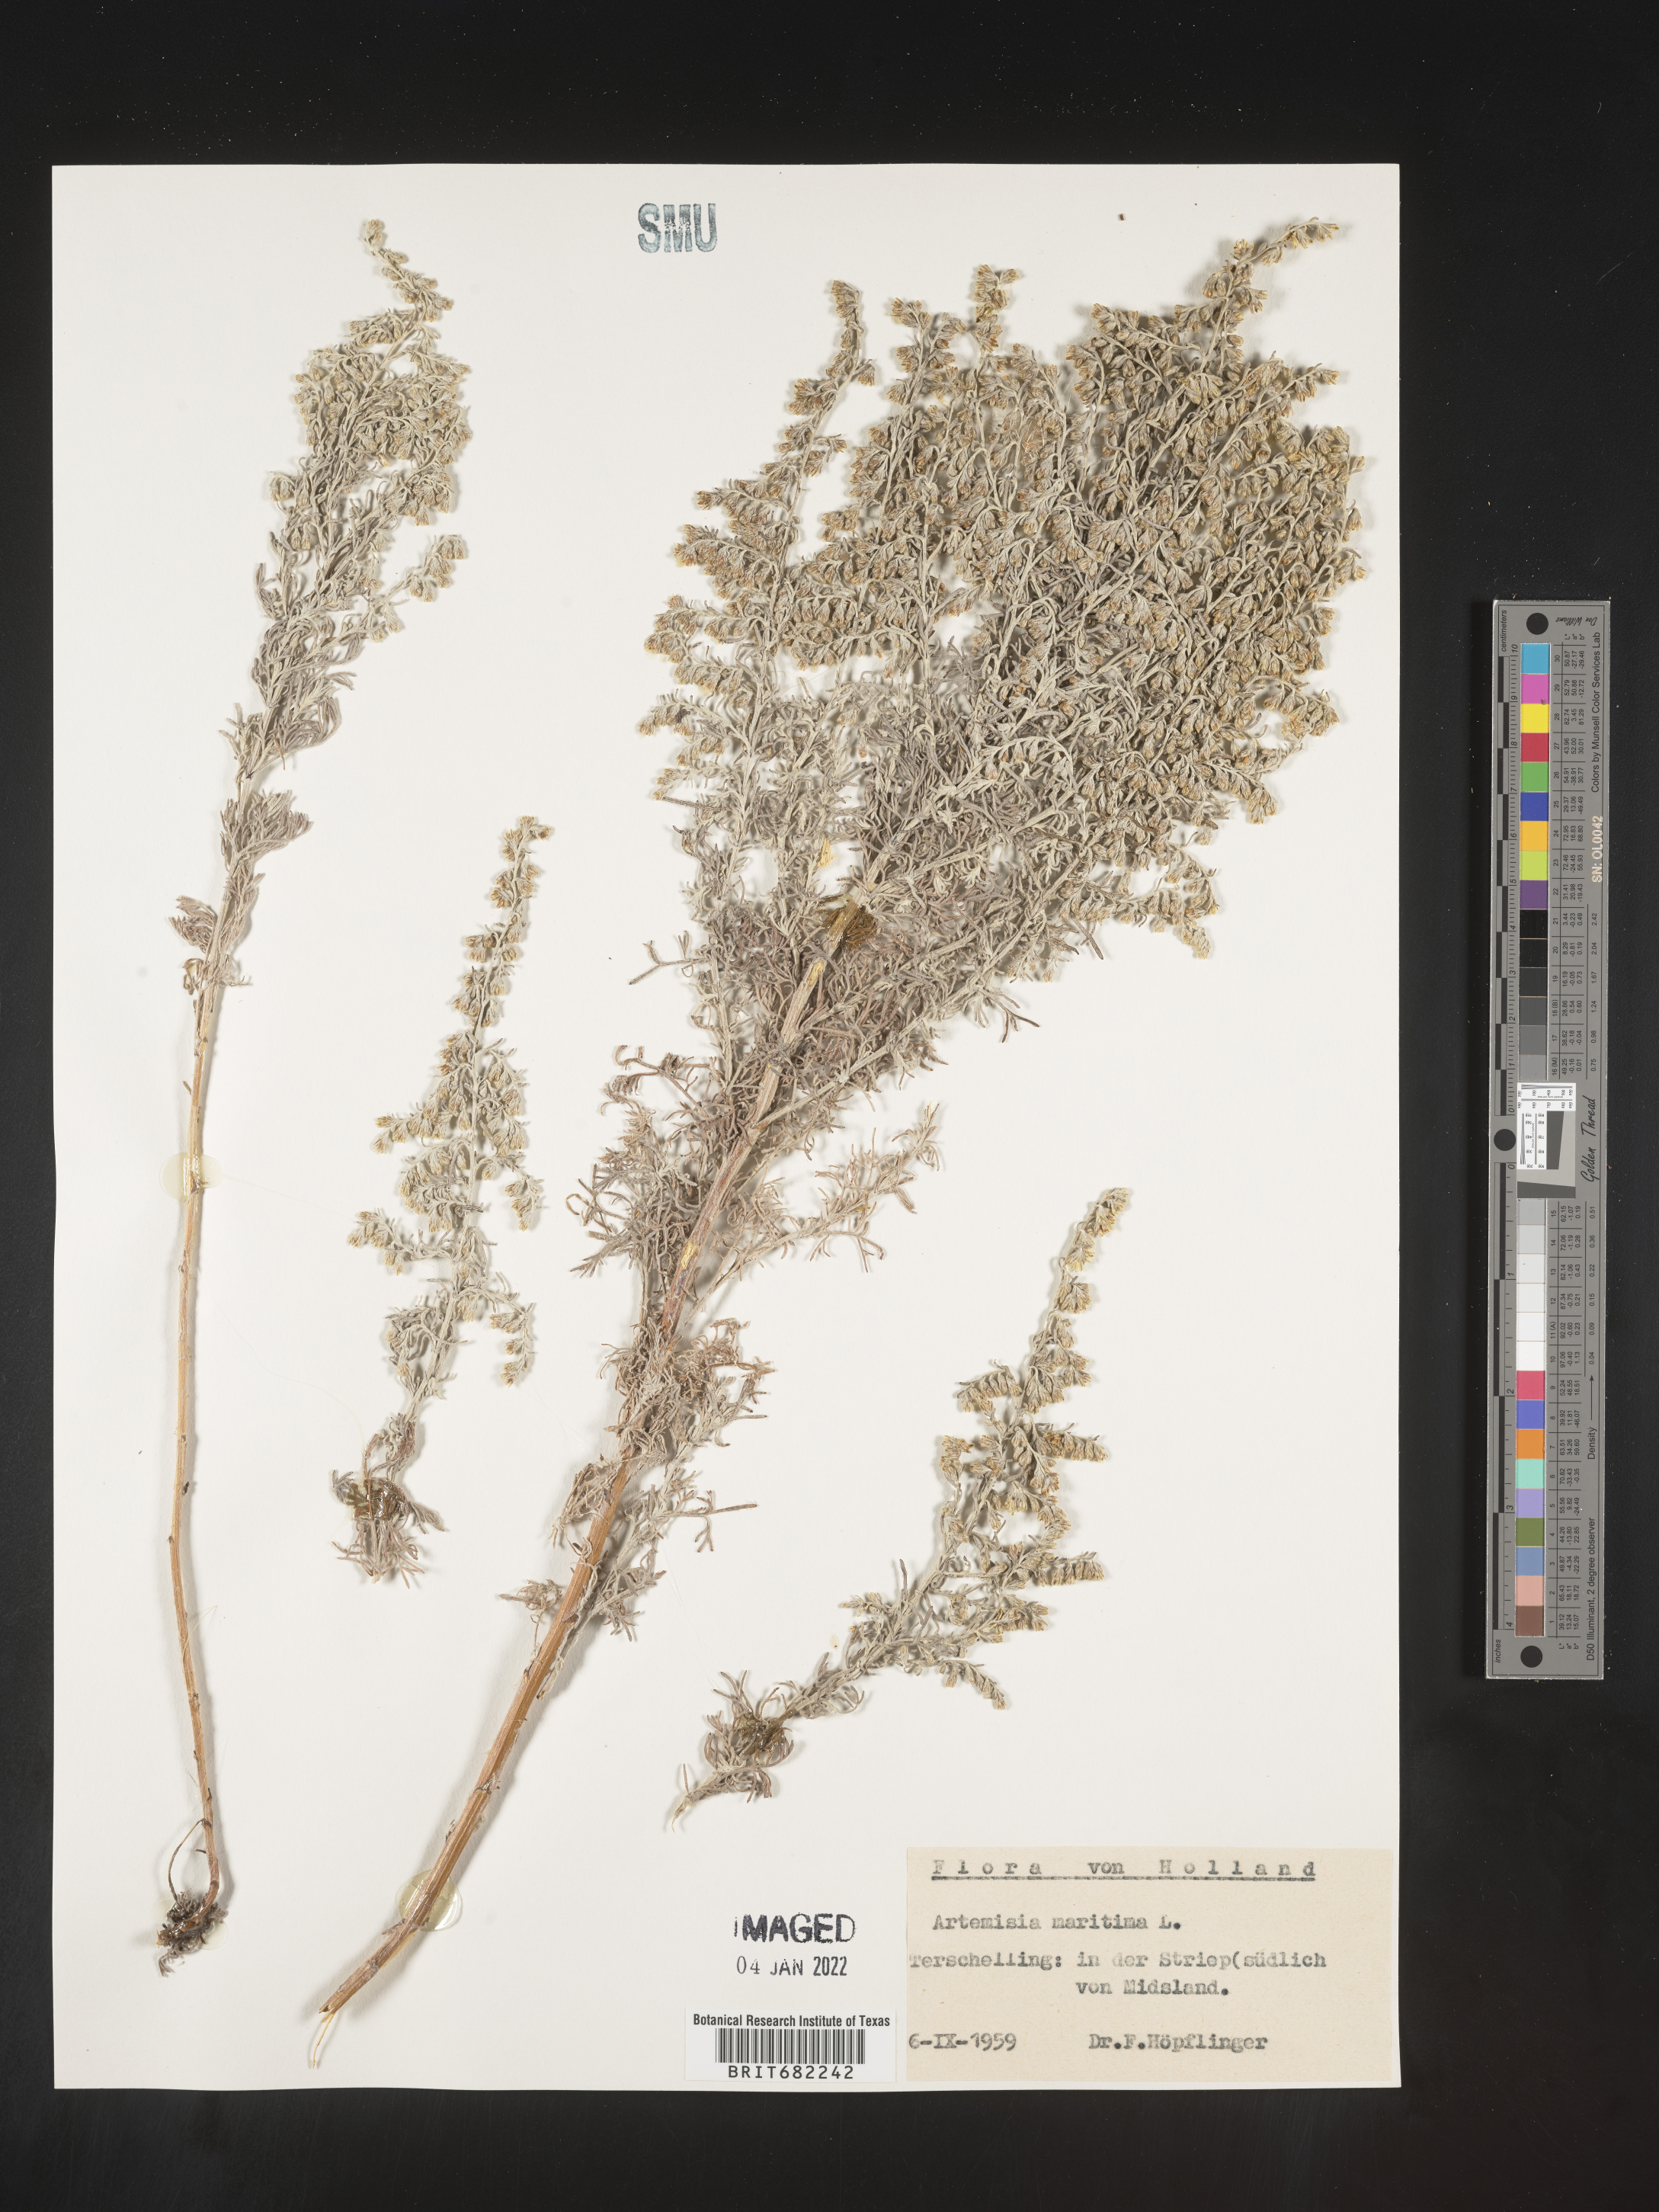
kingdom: Plantae
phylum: Tracheophyta
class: Magnoliopsida
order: Asterales
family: Asteraceae
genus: Artemisia
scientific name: Artemisia
